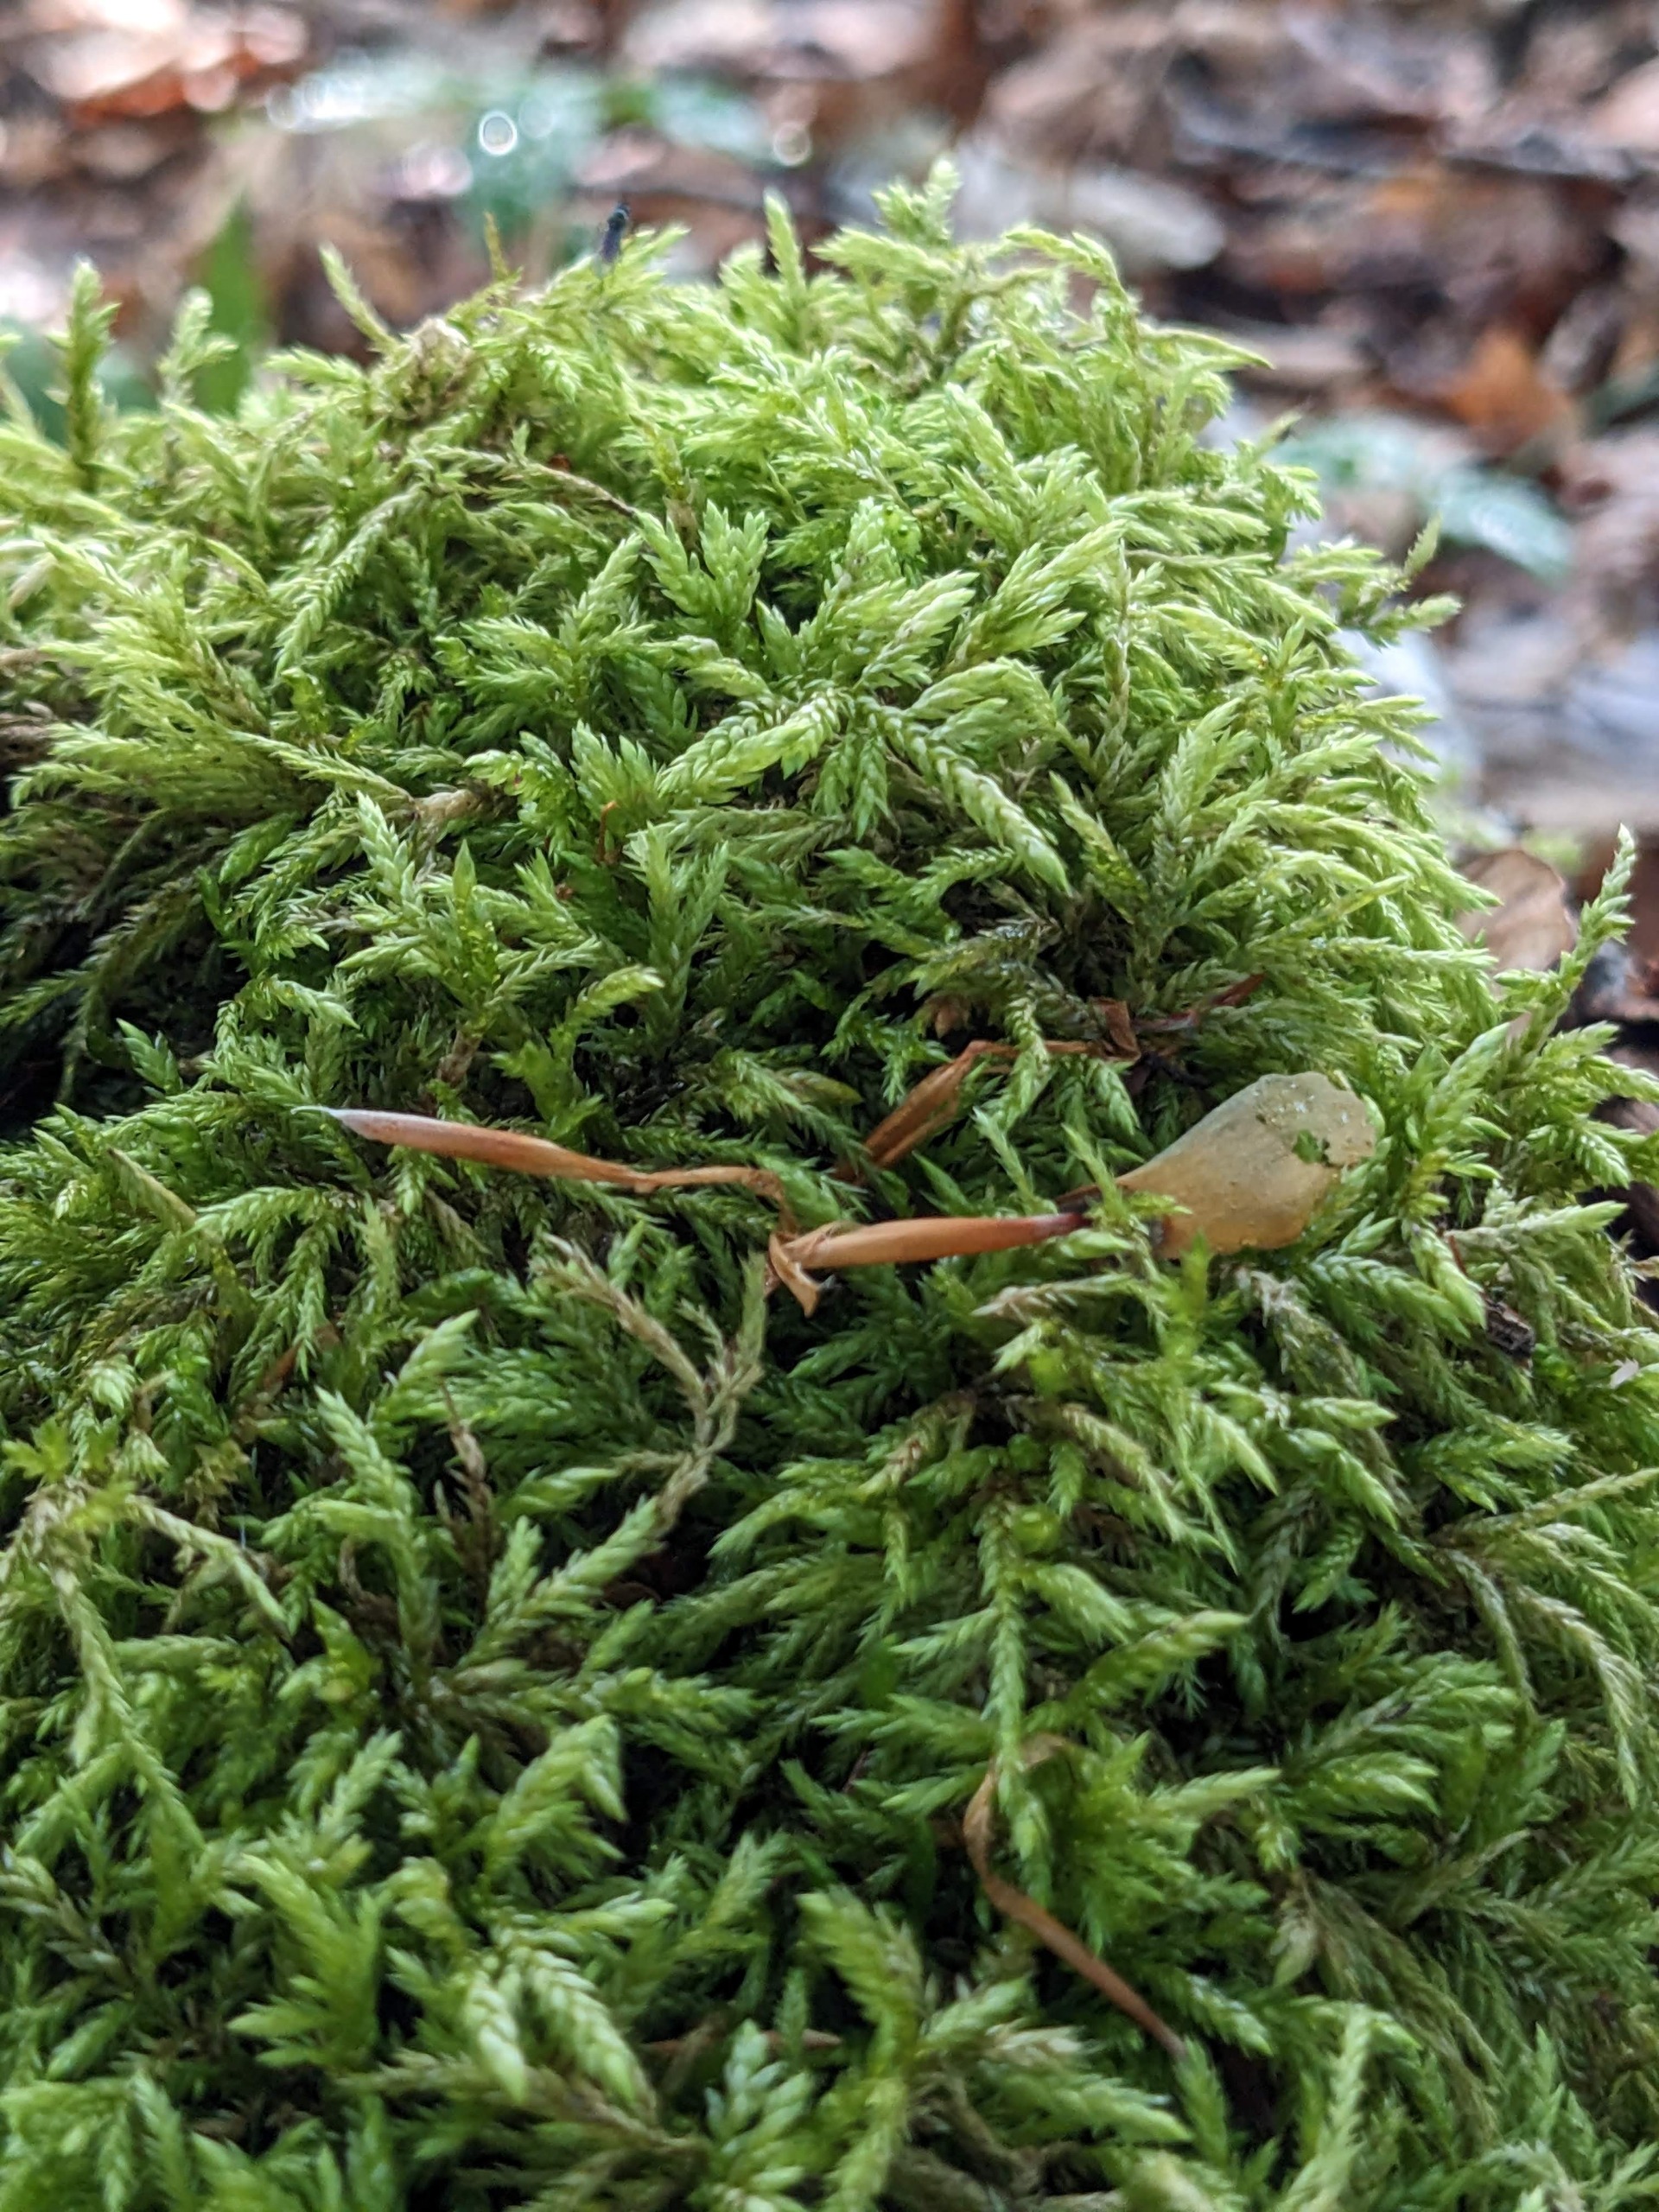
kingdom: Plantae
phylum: Bryophyta
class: Bryopsida
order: Hypnales
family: Lembophyllaceae
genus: Isothecium
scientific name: Isothecium alopecuroides
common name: Stor stammemos
